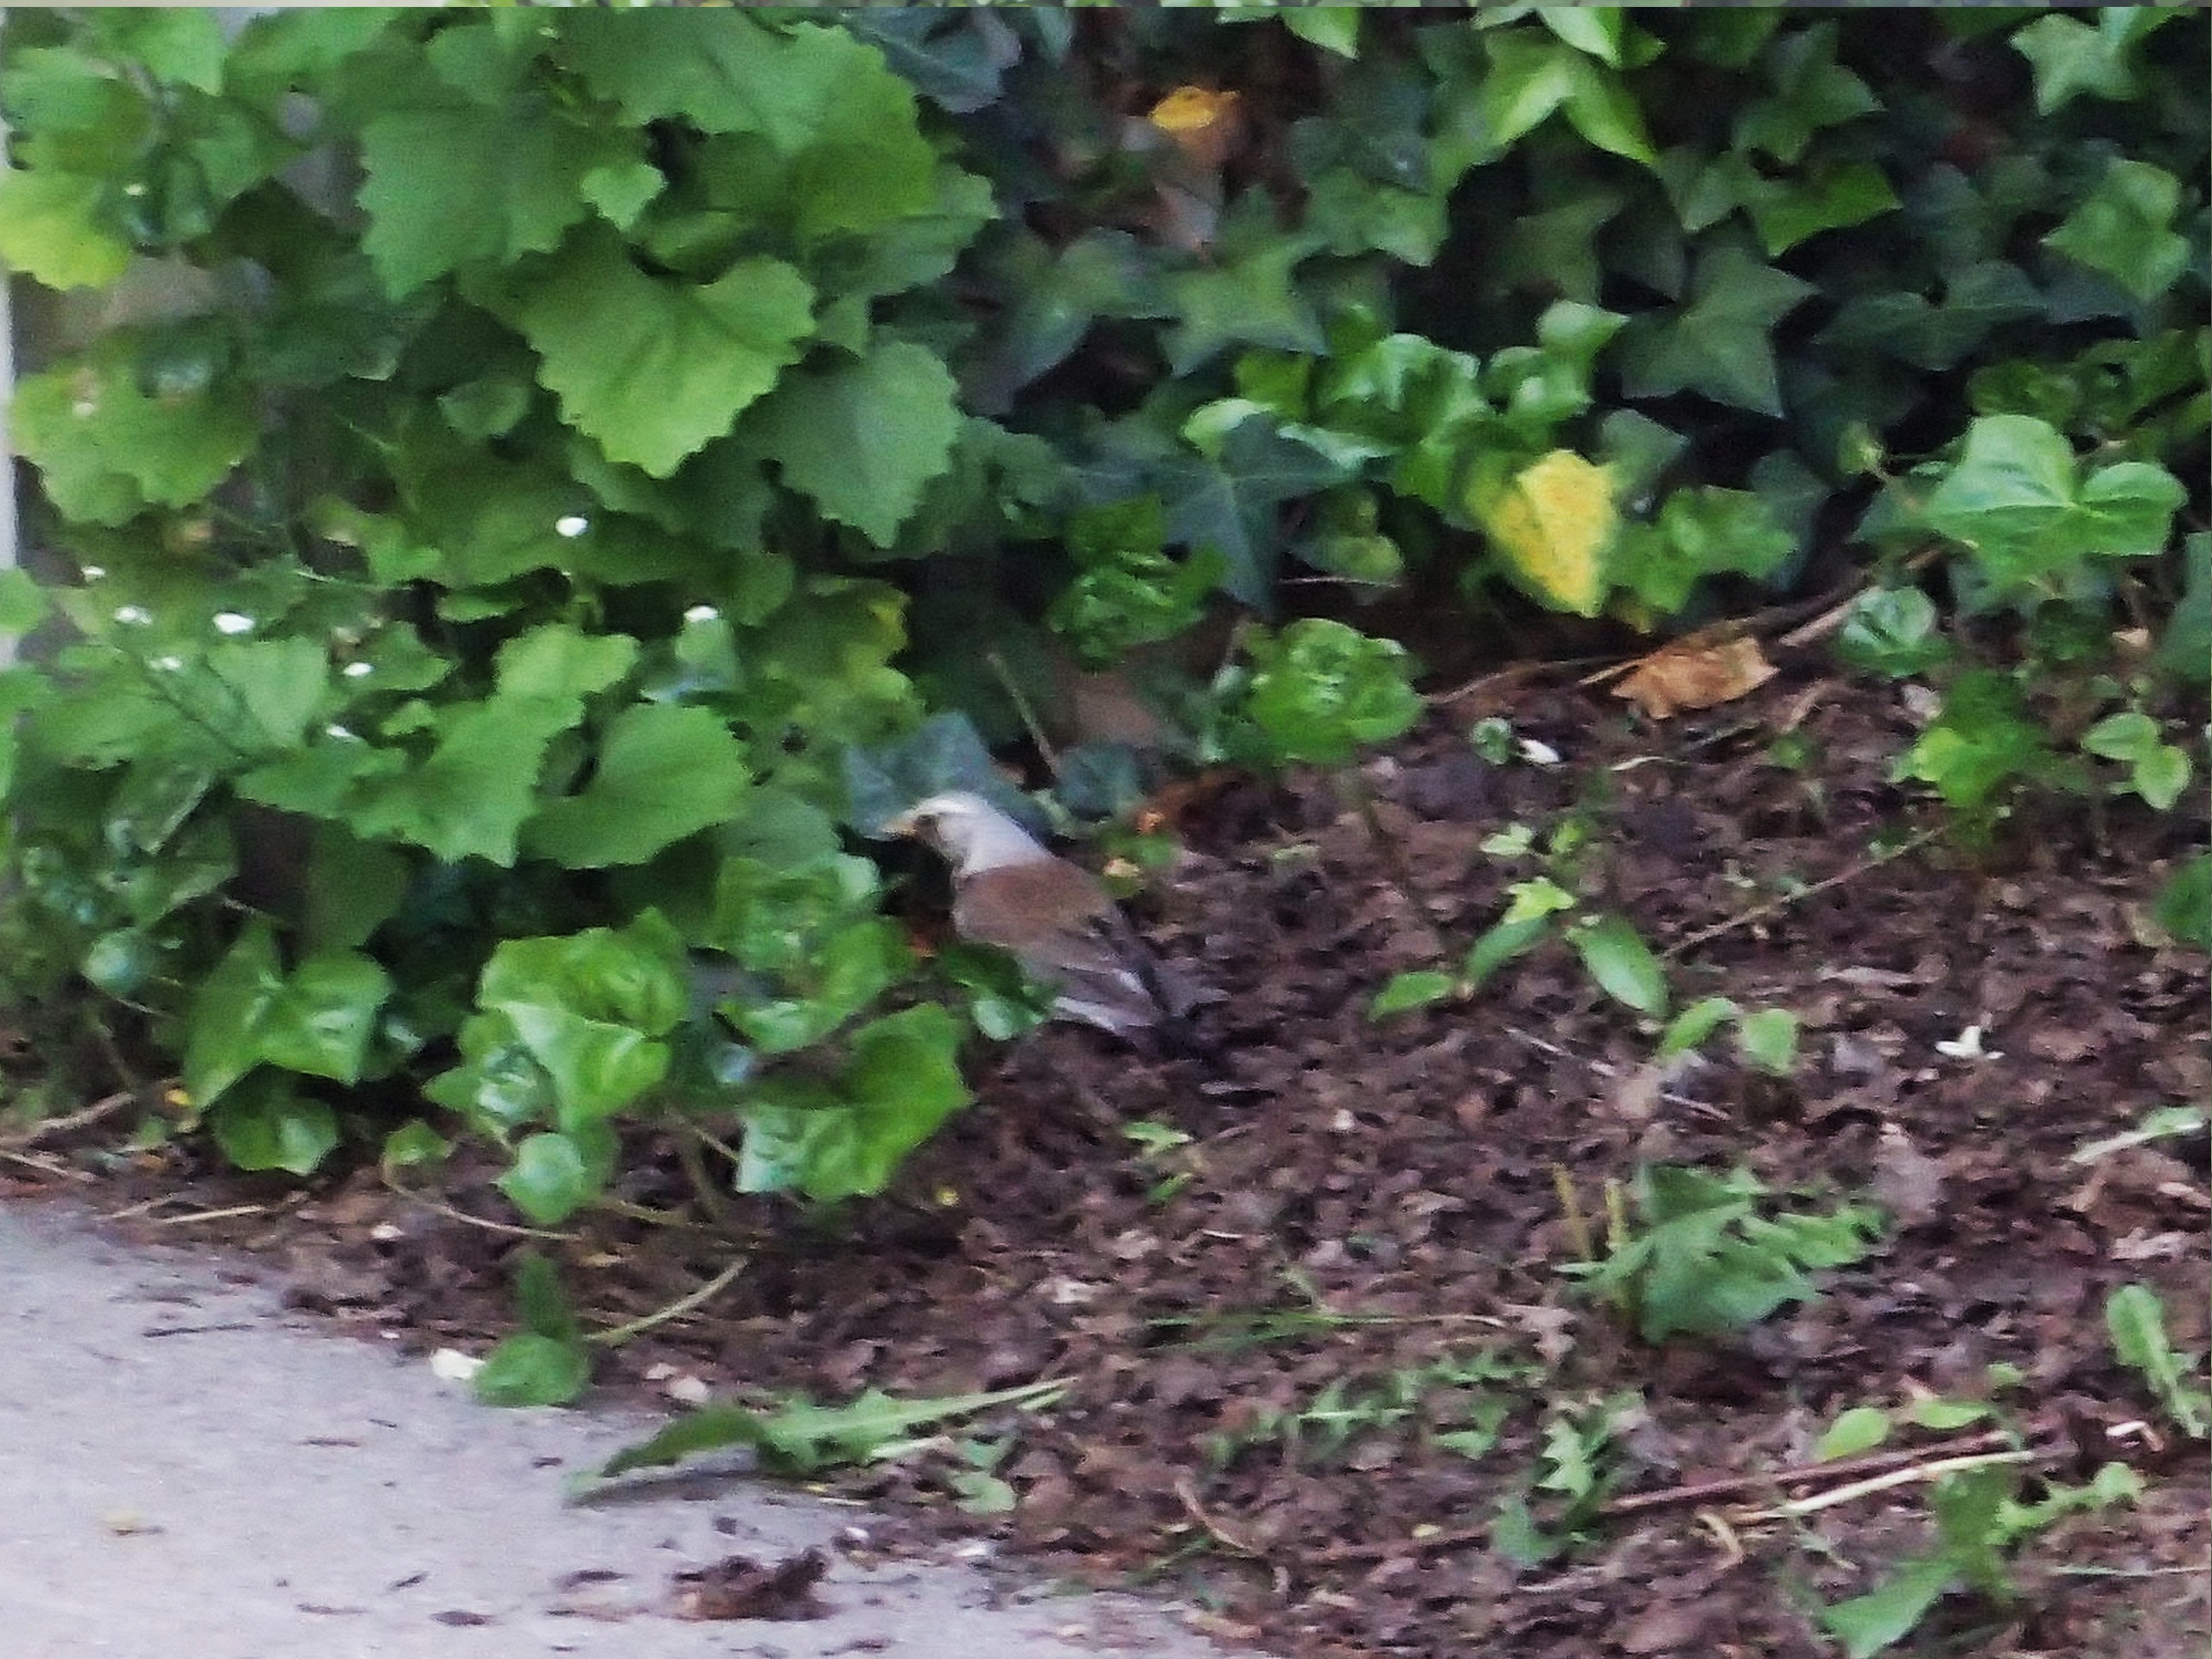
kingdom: Animalia
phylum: Chordata
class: Aves
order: Passeriformes
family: Turdidae
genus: Turdus
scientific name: Turdus pilaris
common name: Sjagger
